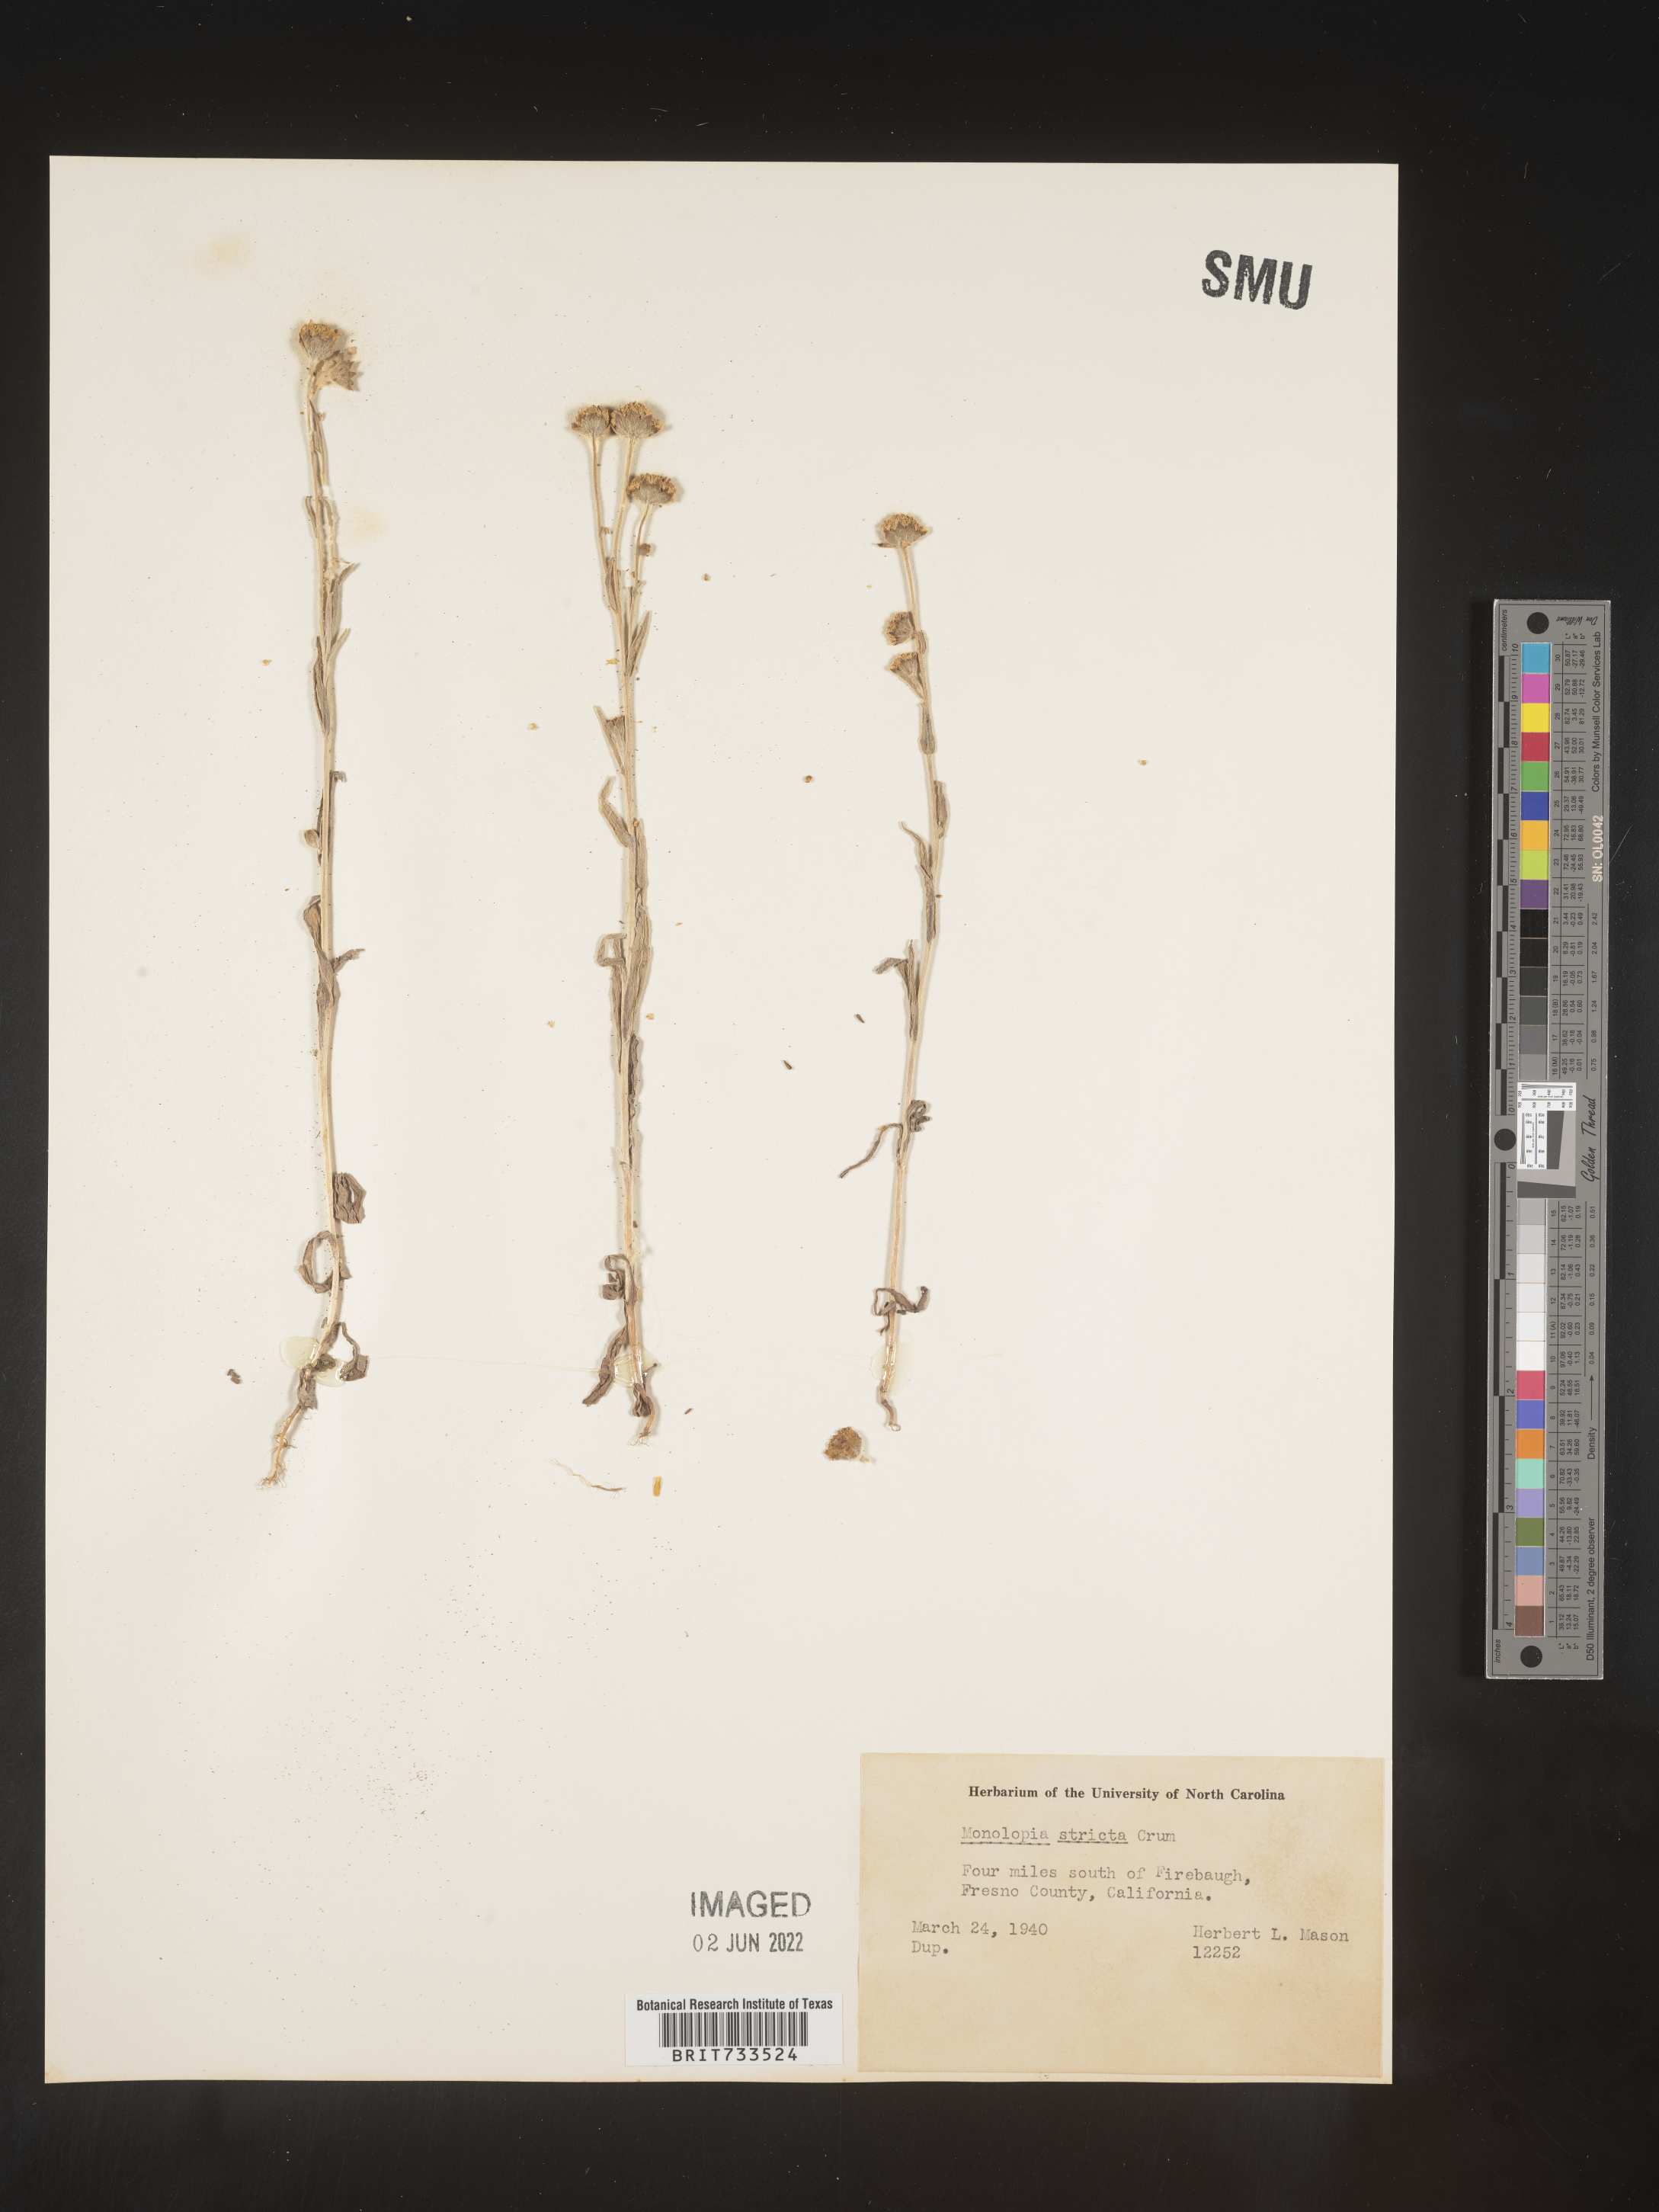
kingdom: Plantae
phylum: Tracheophyta
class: Magnoliopsida
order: Asterales
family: Asteraceae
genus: Monolopia
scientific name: Monolopia stricta
